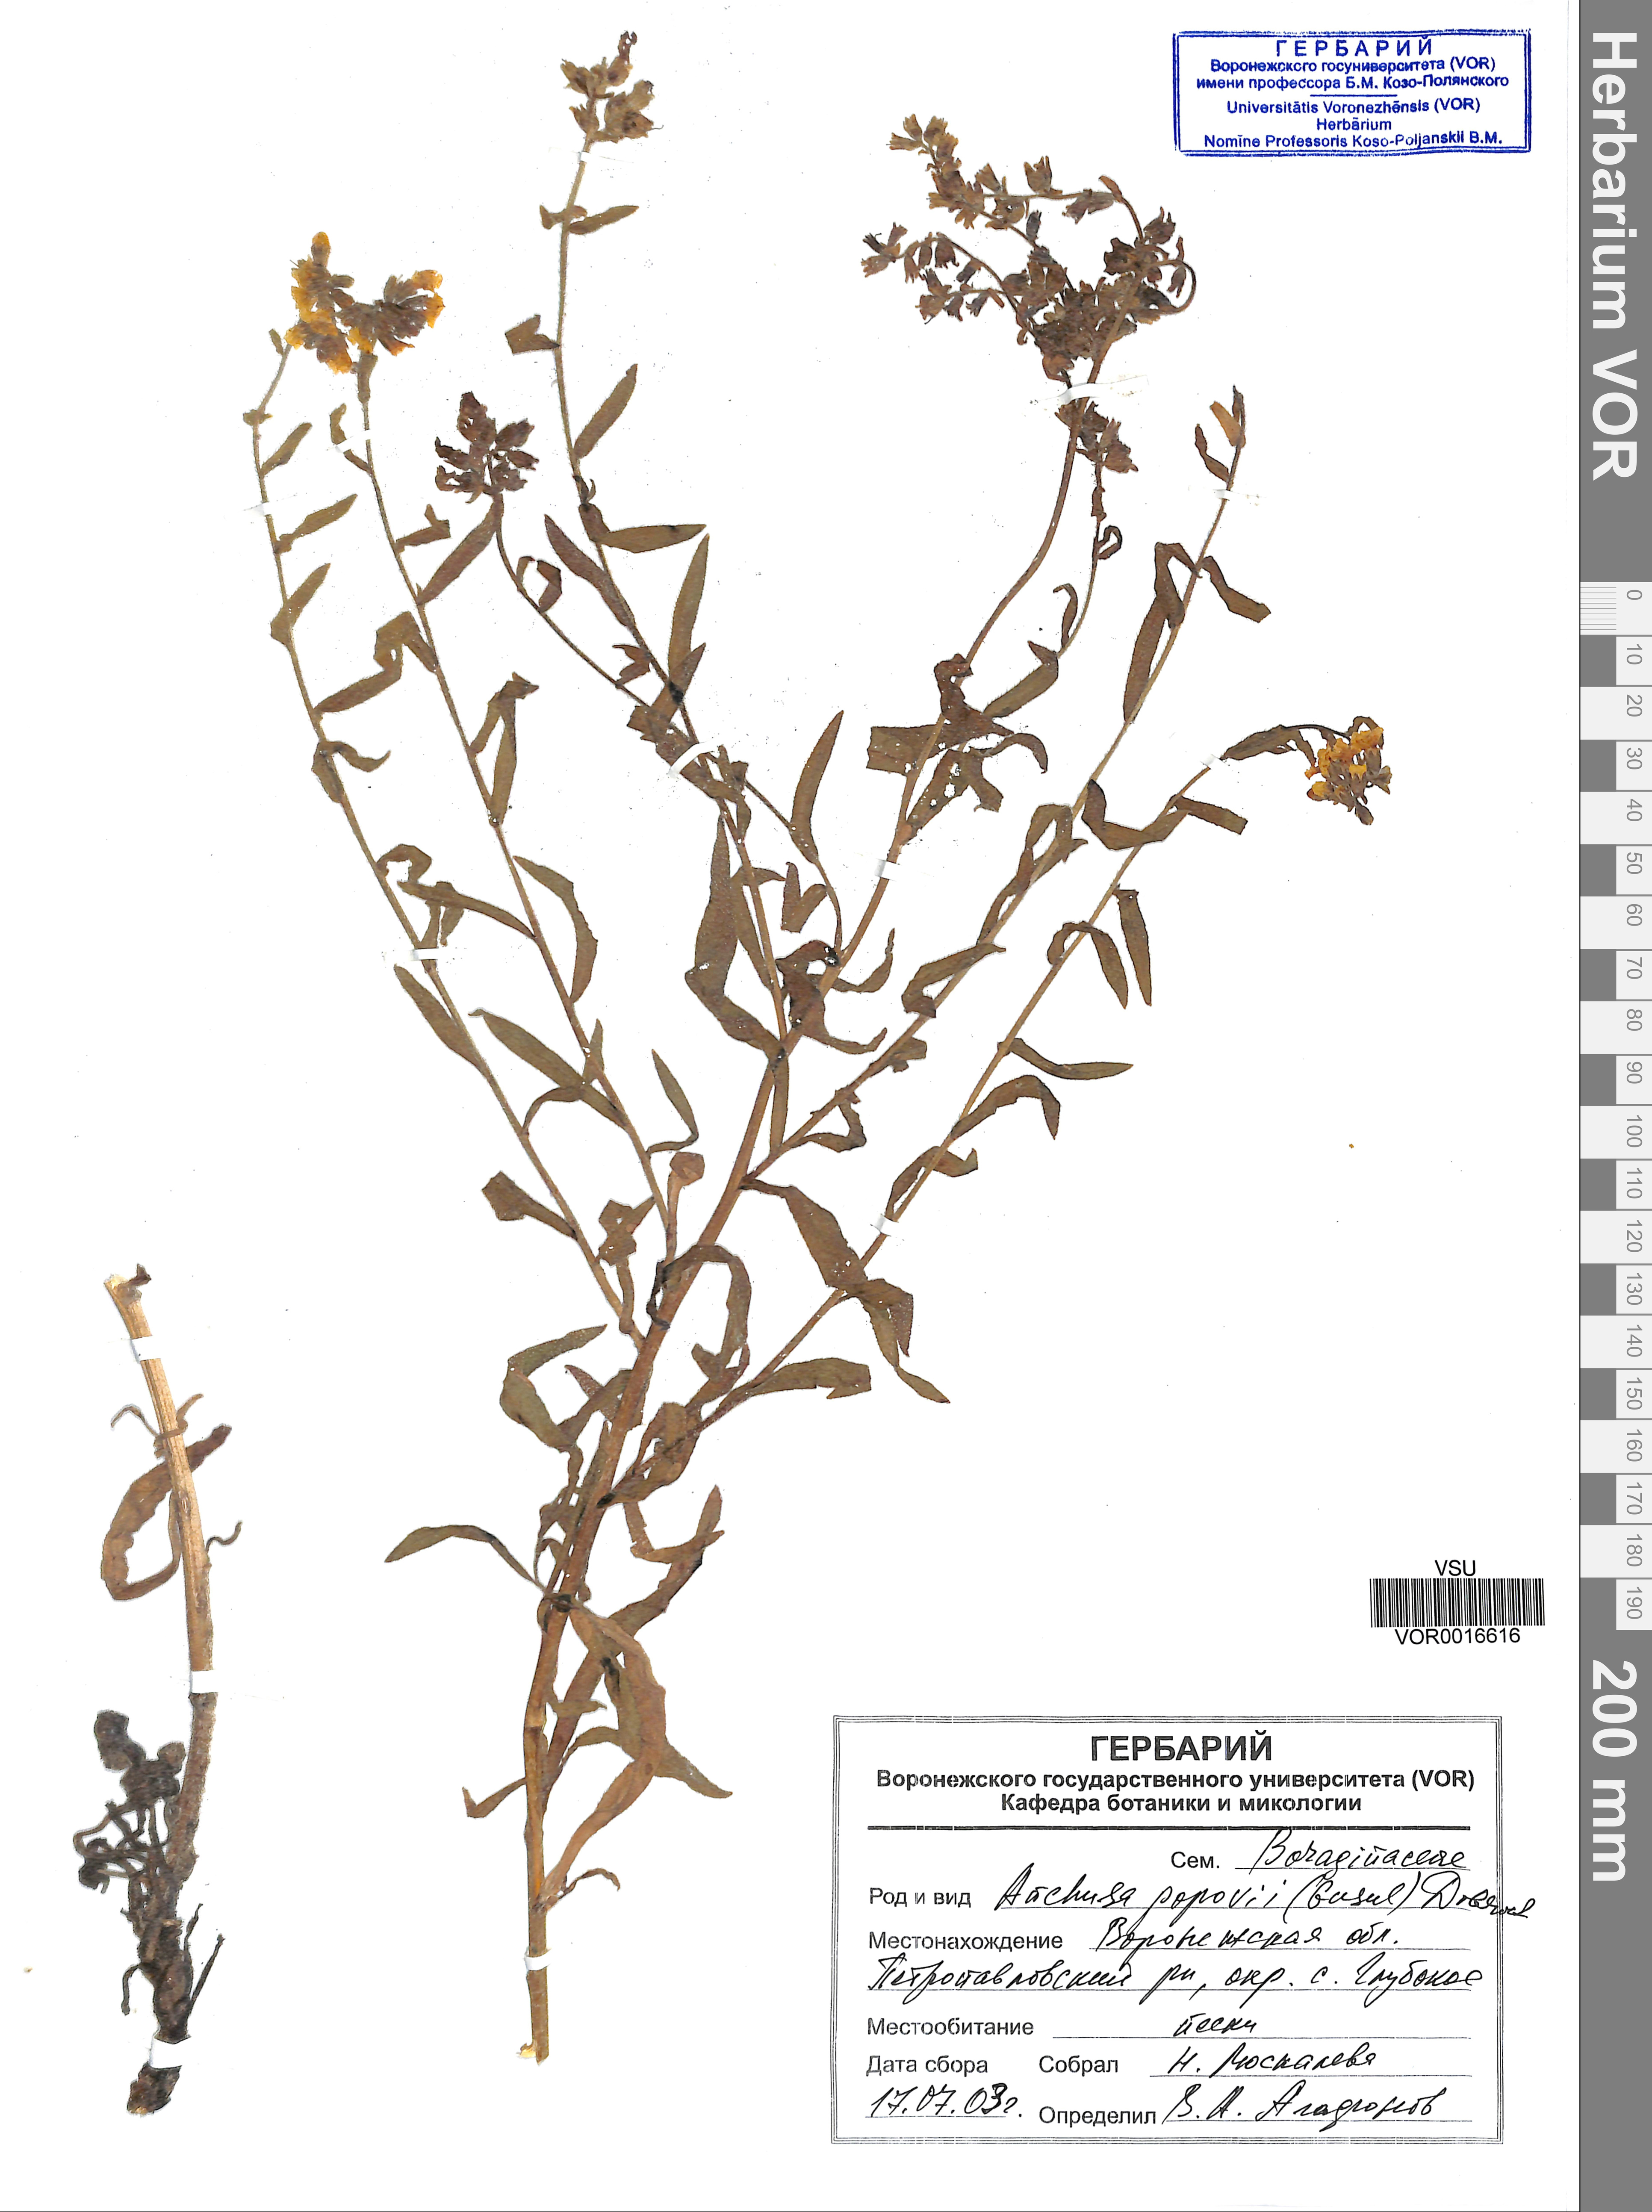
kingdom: Plantae
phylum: Tracheophyta
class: Magnoliopsida
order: Boraginales
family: Boraginaceae
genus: Anchusa
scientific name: Anchusa ochroleuca
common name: Yellow alkanet
